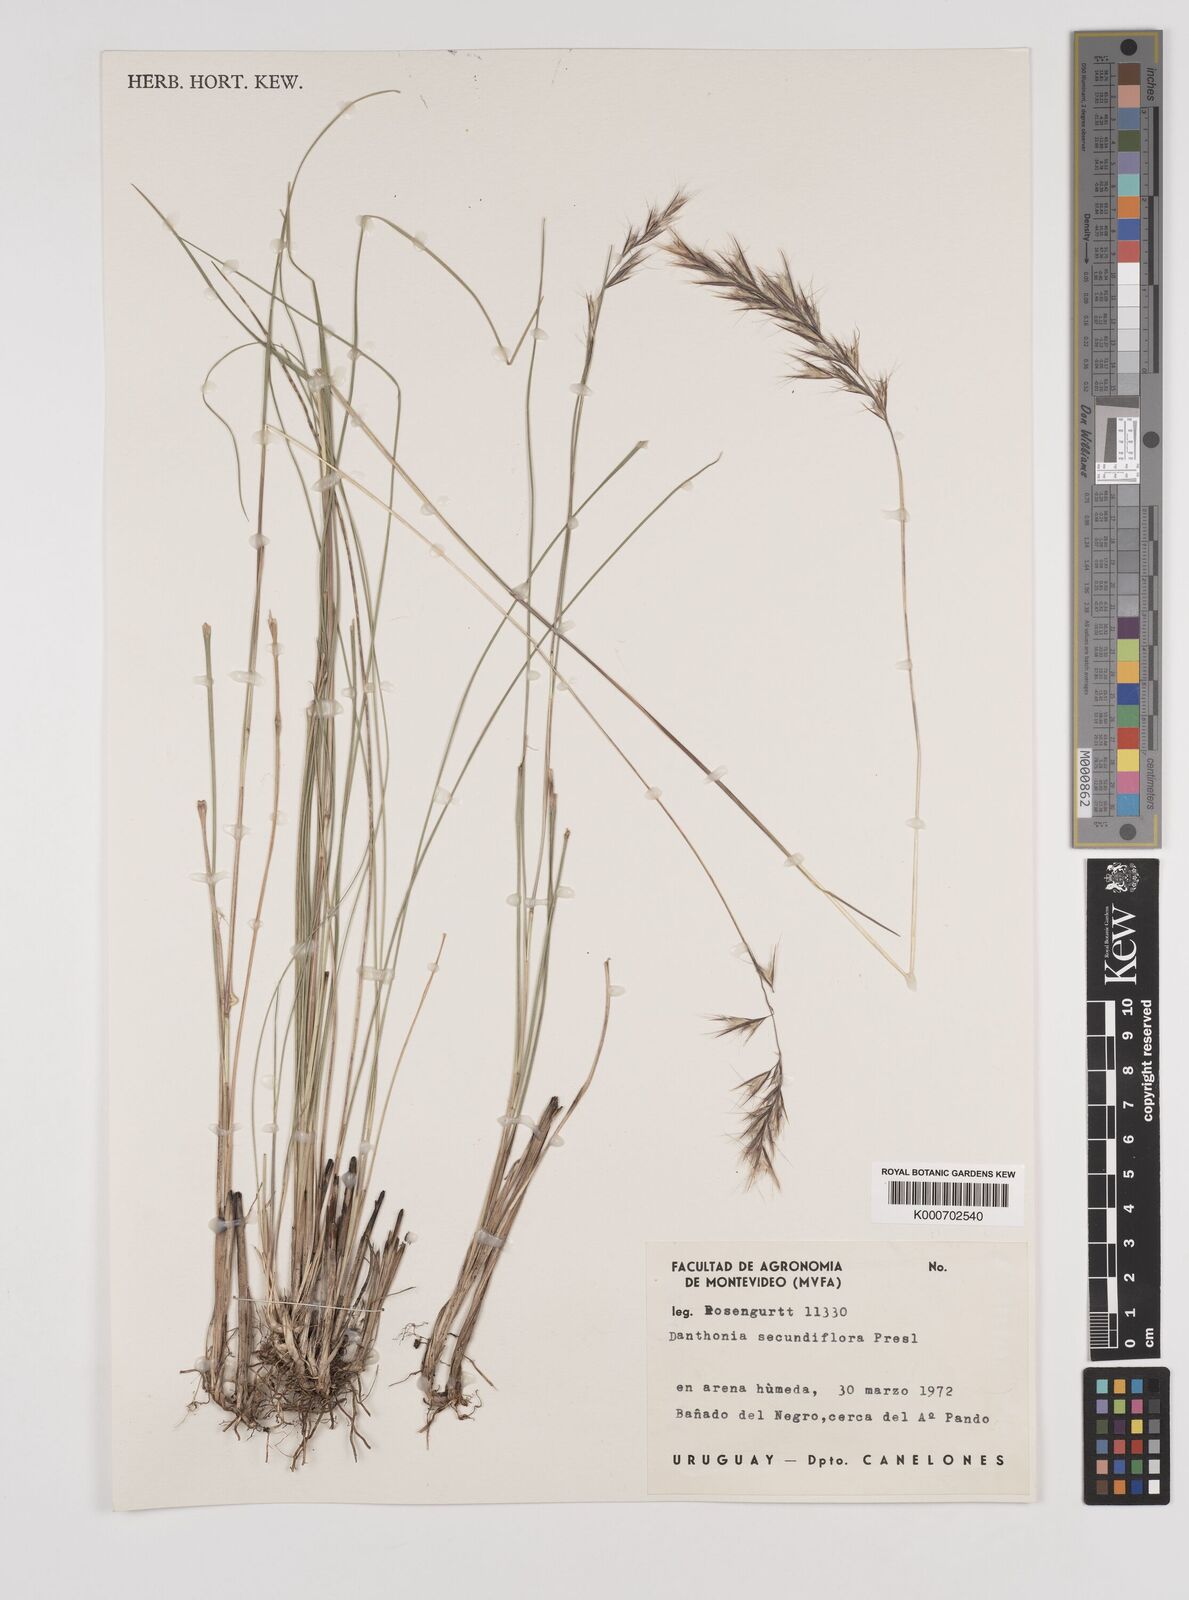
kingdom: Plantae
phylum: Tracheophyta
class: Liliopsida
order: Poales
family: Poaceae
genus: Danthonia
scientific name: Danthonia secundiflora
